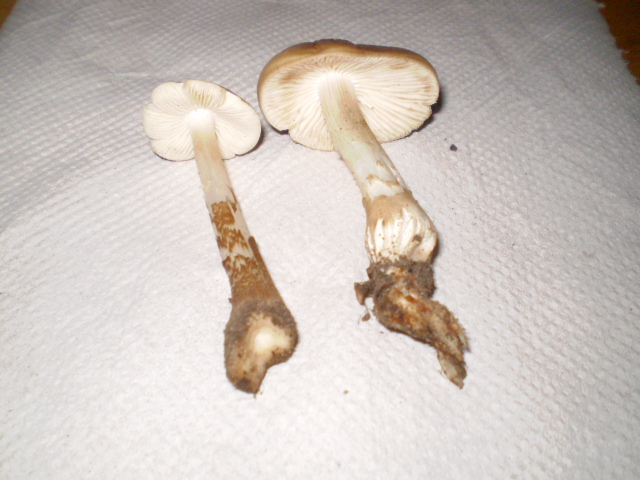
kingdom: Fungi
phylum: Basidiomycota
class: Agaricomycetes
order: Agaricales
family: Physalacriaceae
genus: Hymenopellis
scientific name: Hymenopellis radicata
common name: almindelig pælerodshat
